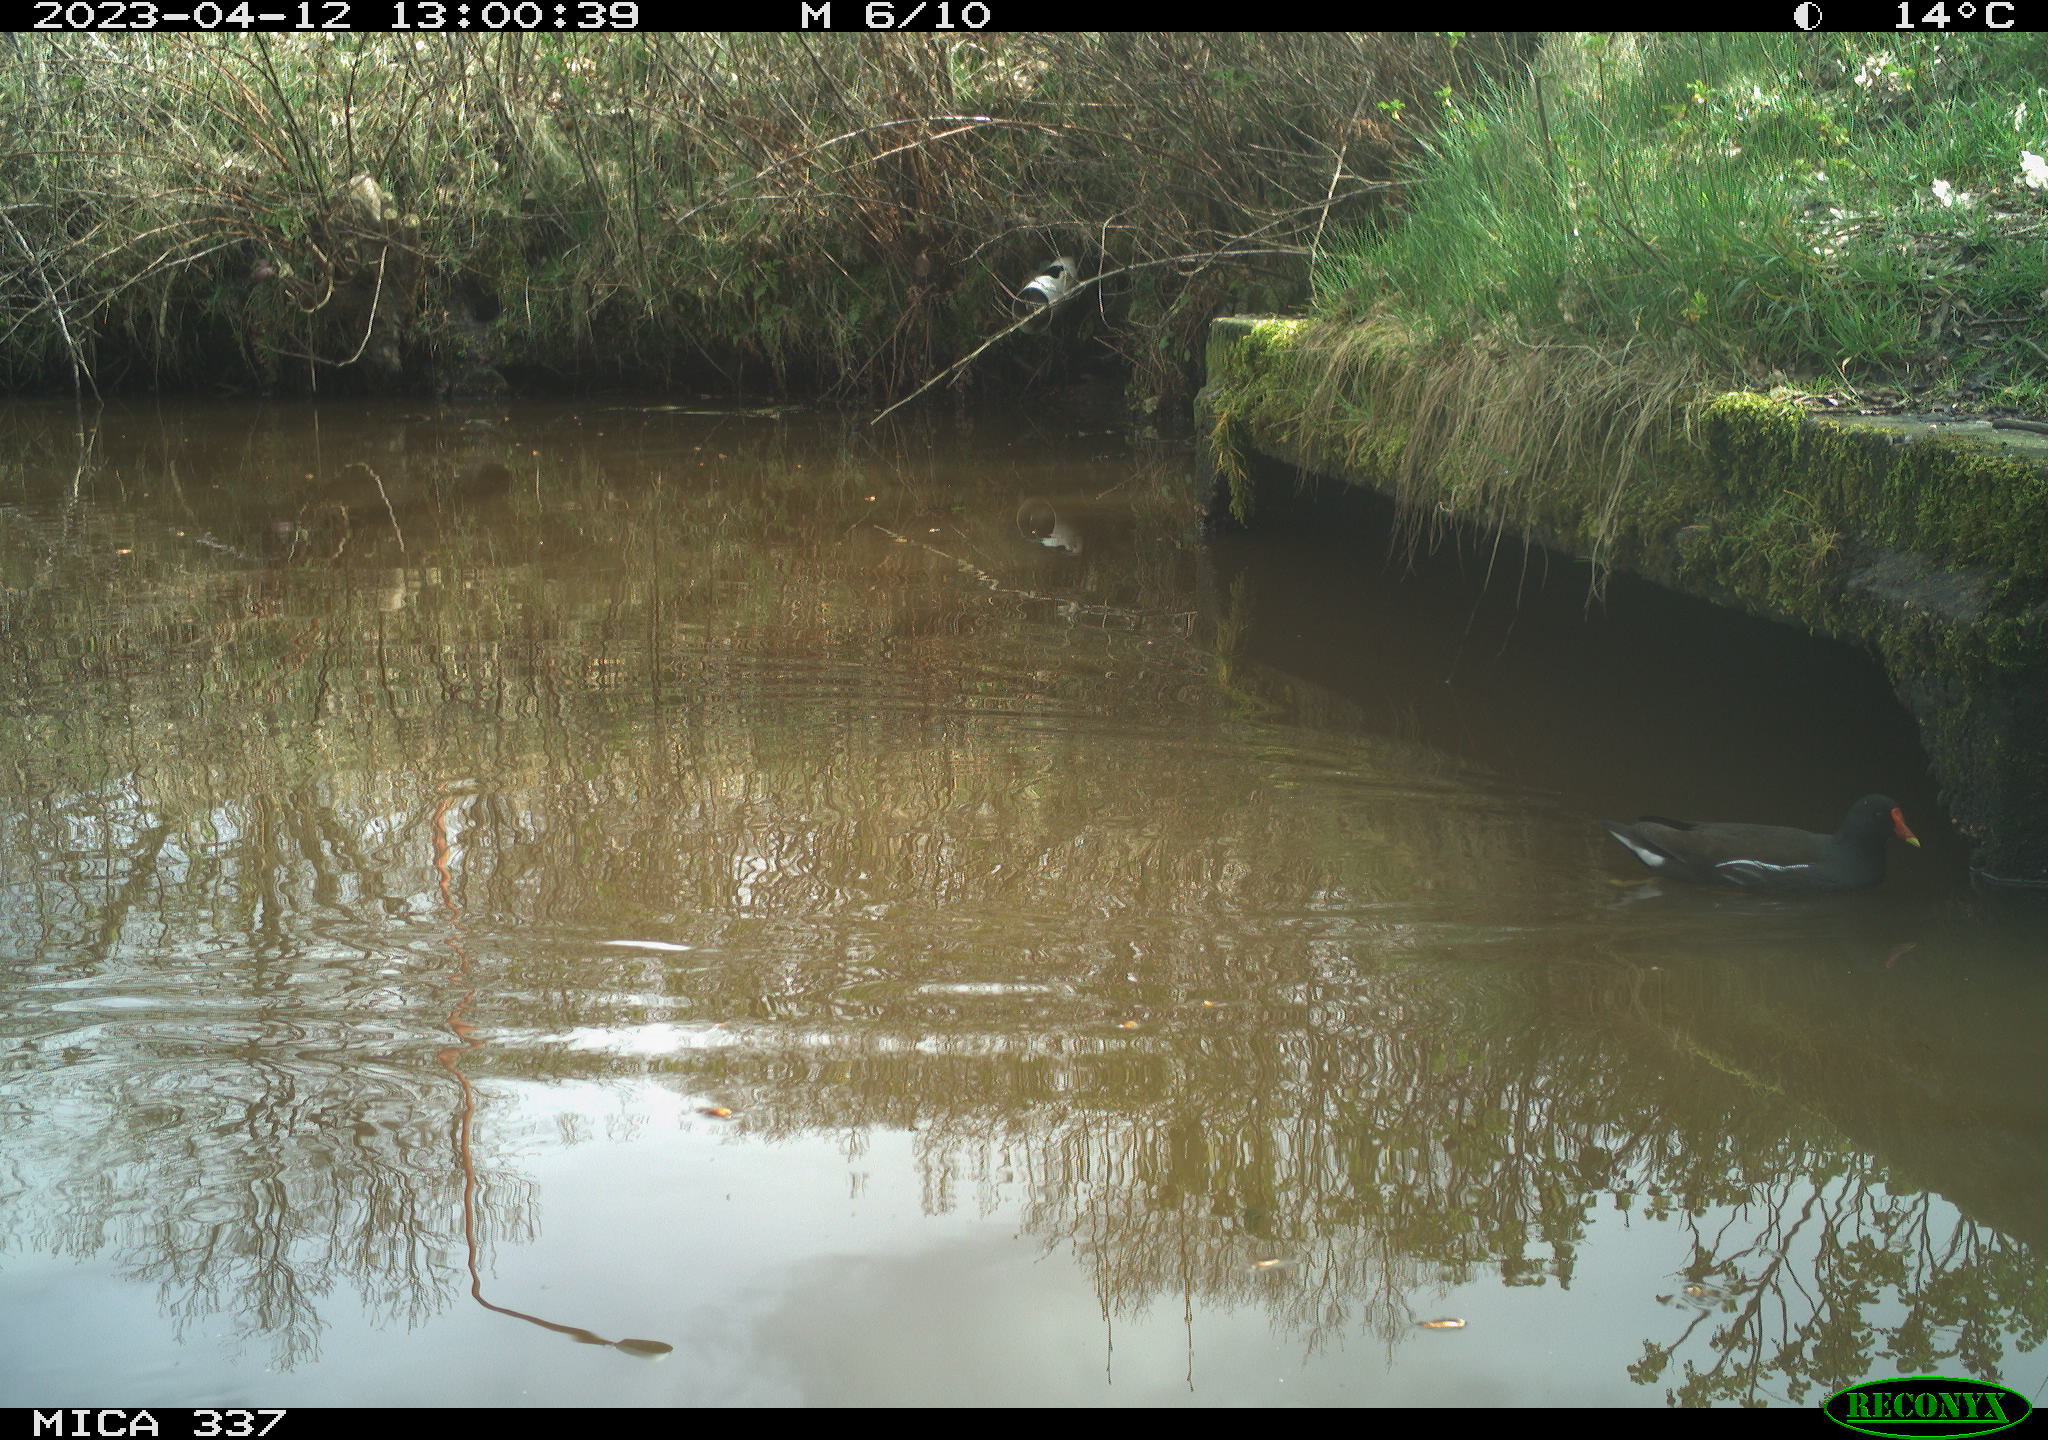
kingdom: Animalia
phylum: Chordata
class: Aves
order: Gruiformes
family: Rallidae
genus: Gallinula
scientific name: Gallinula chloropus
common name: Common moorhen
